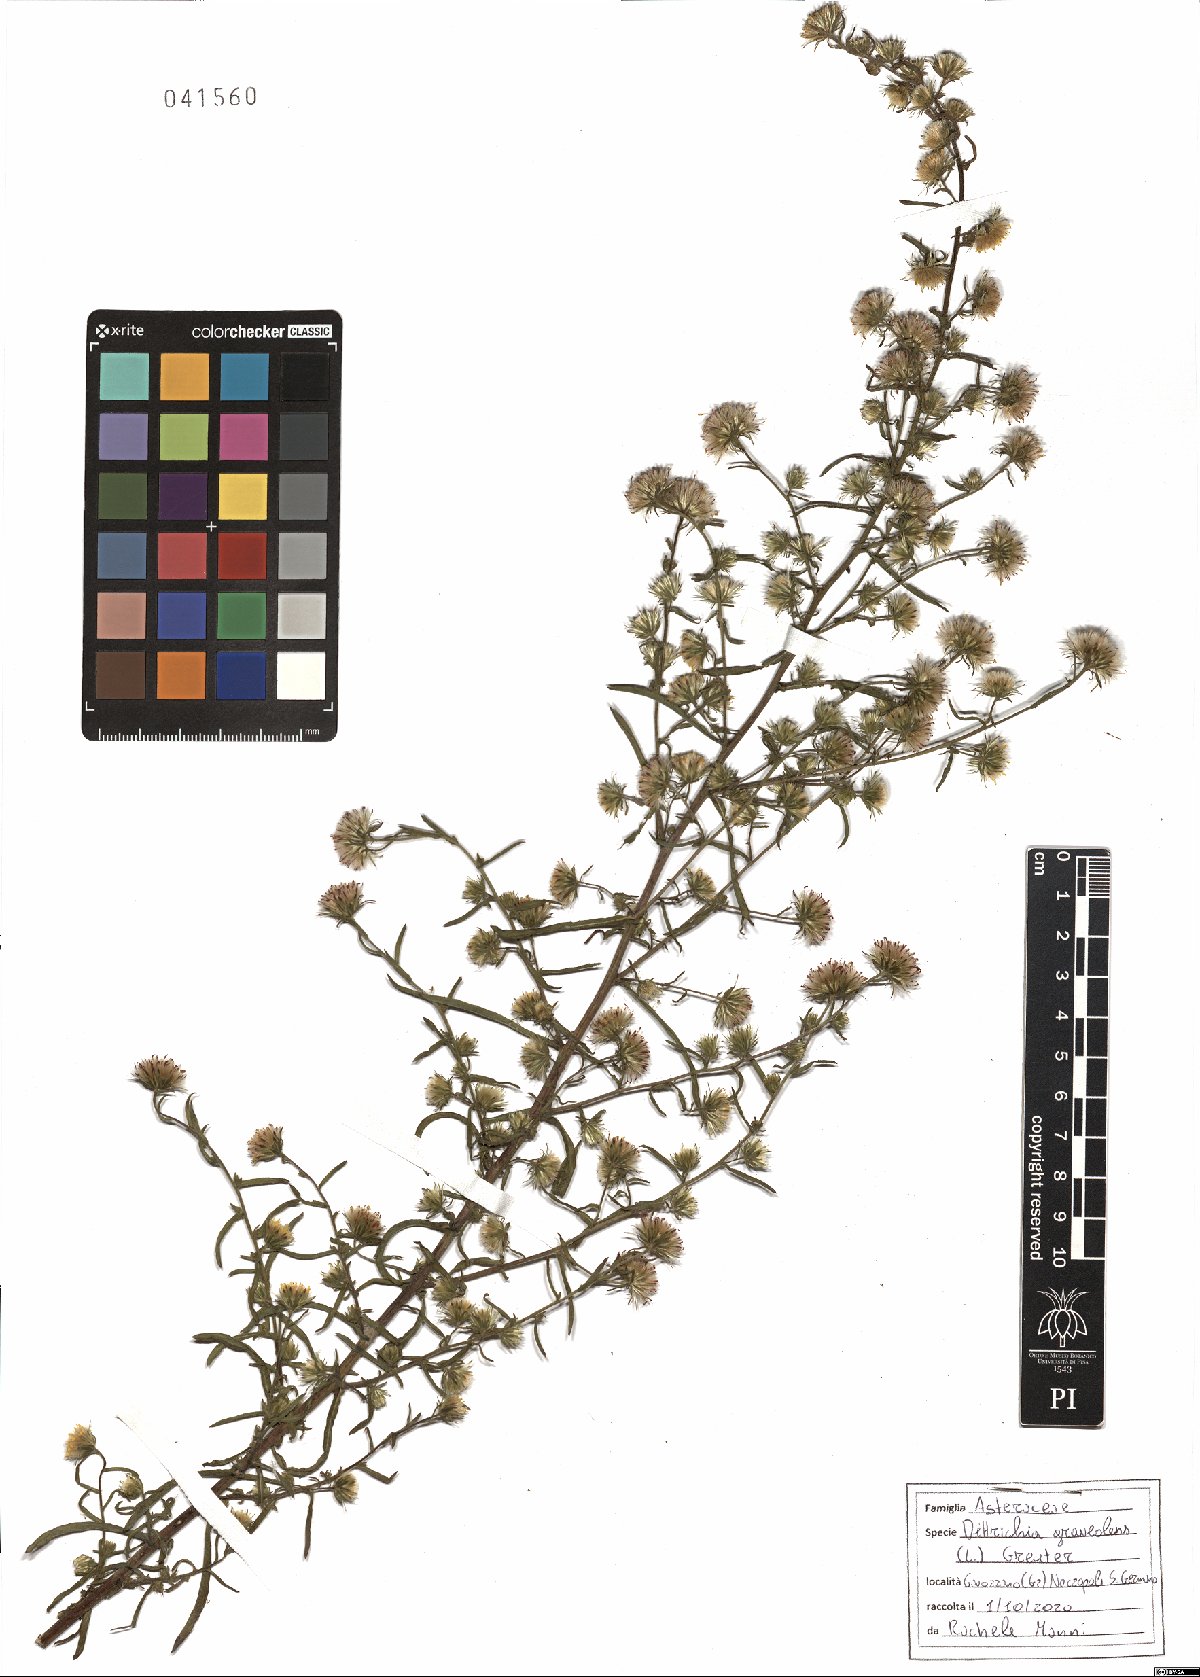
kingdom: Plantae
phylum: Tracheophyta
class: Magnoliopsida
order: Asterales
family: Asteraceae
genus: Dittrichia
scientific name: Dittrichia graveolens
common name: Stinking fleabane
